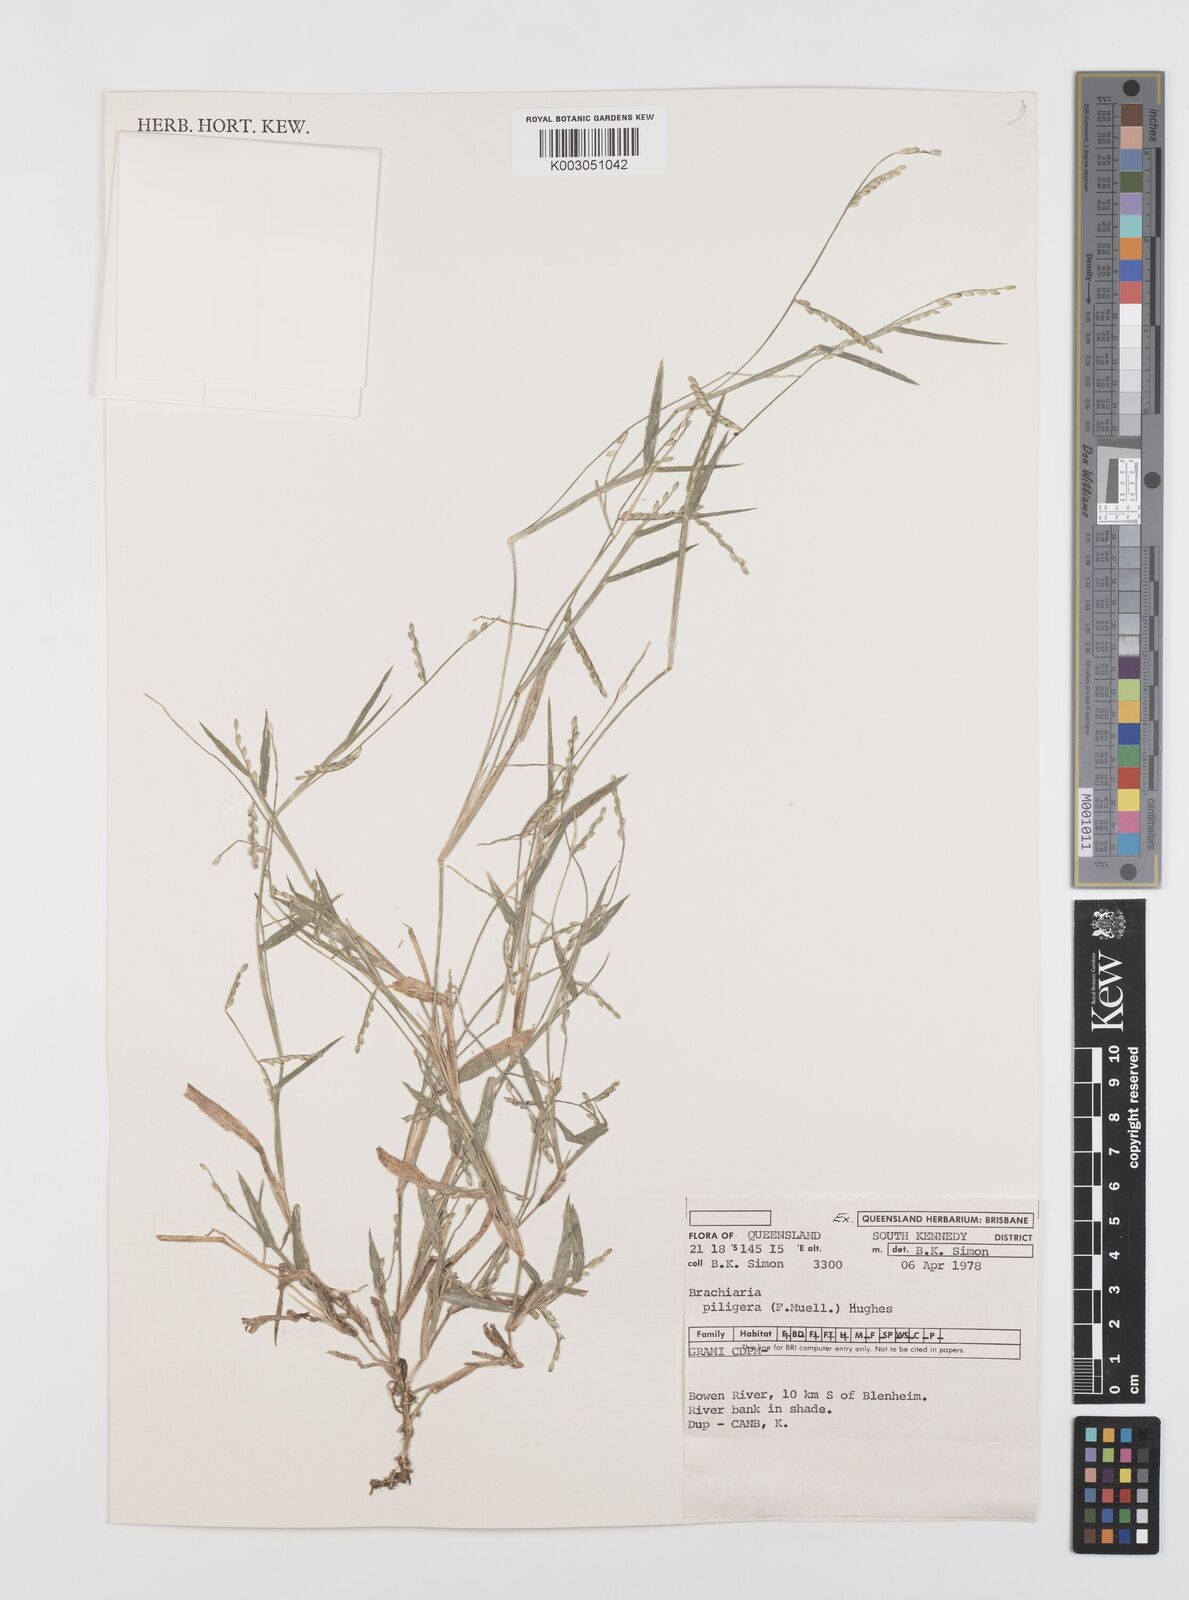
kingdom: Plantae
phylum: Tracheophyta
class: Liliopsida
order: Poales
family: Poaceae
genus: Urochloa
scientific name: Urochloa piligera
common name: Wattle signalgrass
